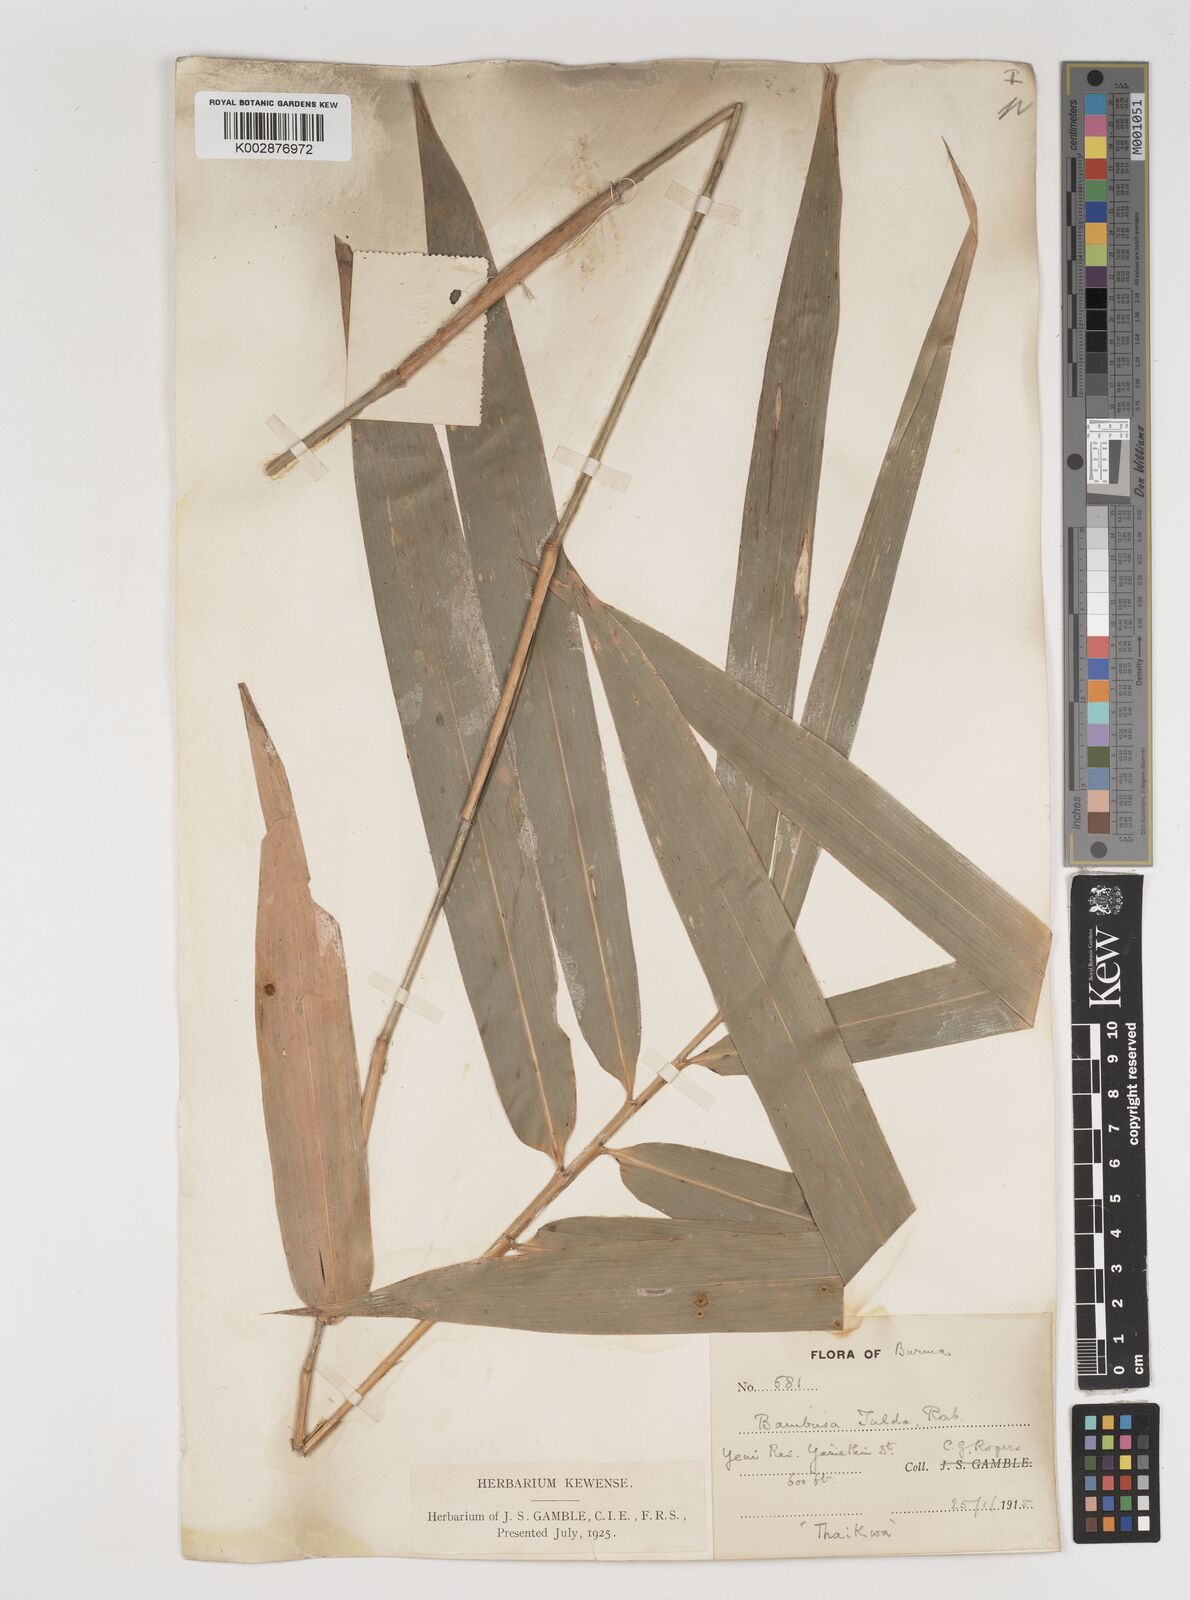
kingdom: Plantae
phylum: Tracheophyta
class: Liliopsida
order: Poales
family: Poaceae
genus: Bambusa
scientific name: Bambusa tulda
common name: Bengal bamboo
